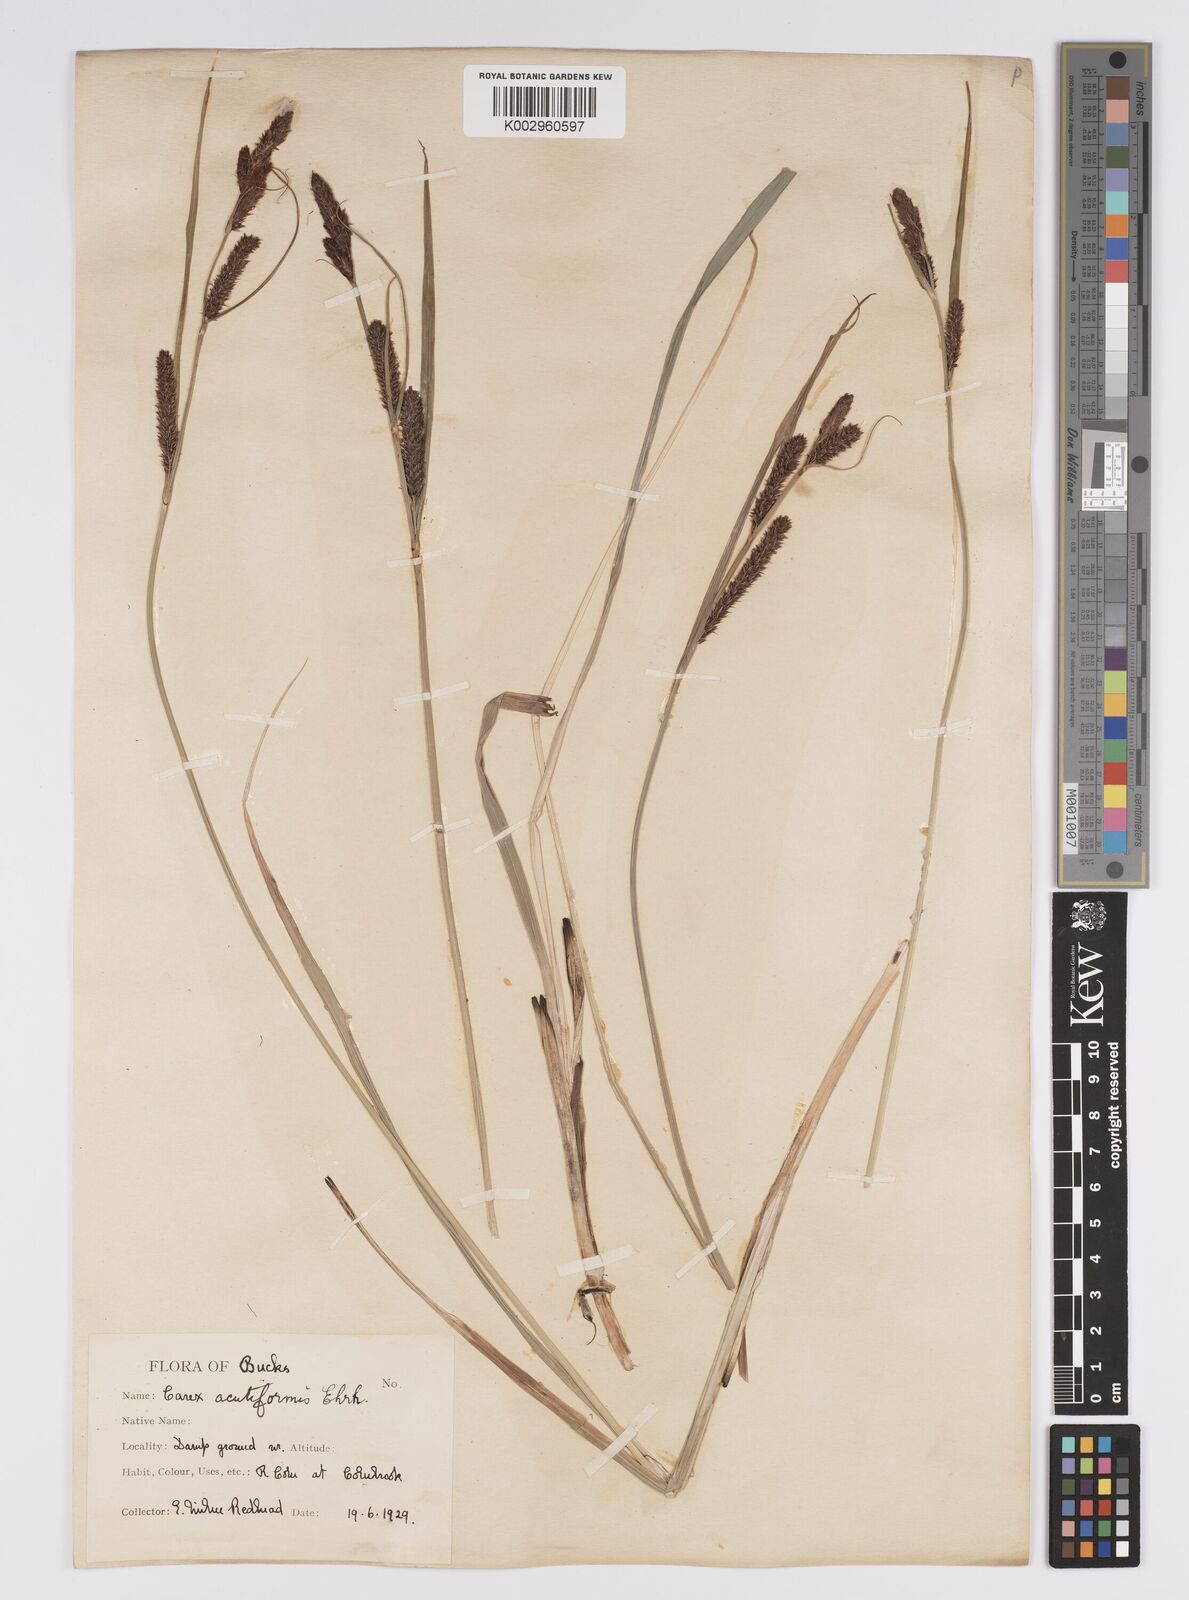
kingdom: Plantae
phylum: Tracheophyta
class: Liliopsida
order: Poales
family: Cyperaceae
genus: Carex
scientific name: Carex acutiformis
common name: Lesser pond-sedge
